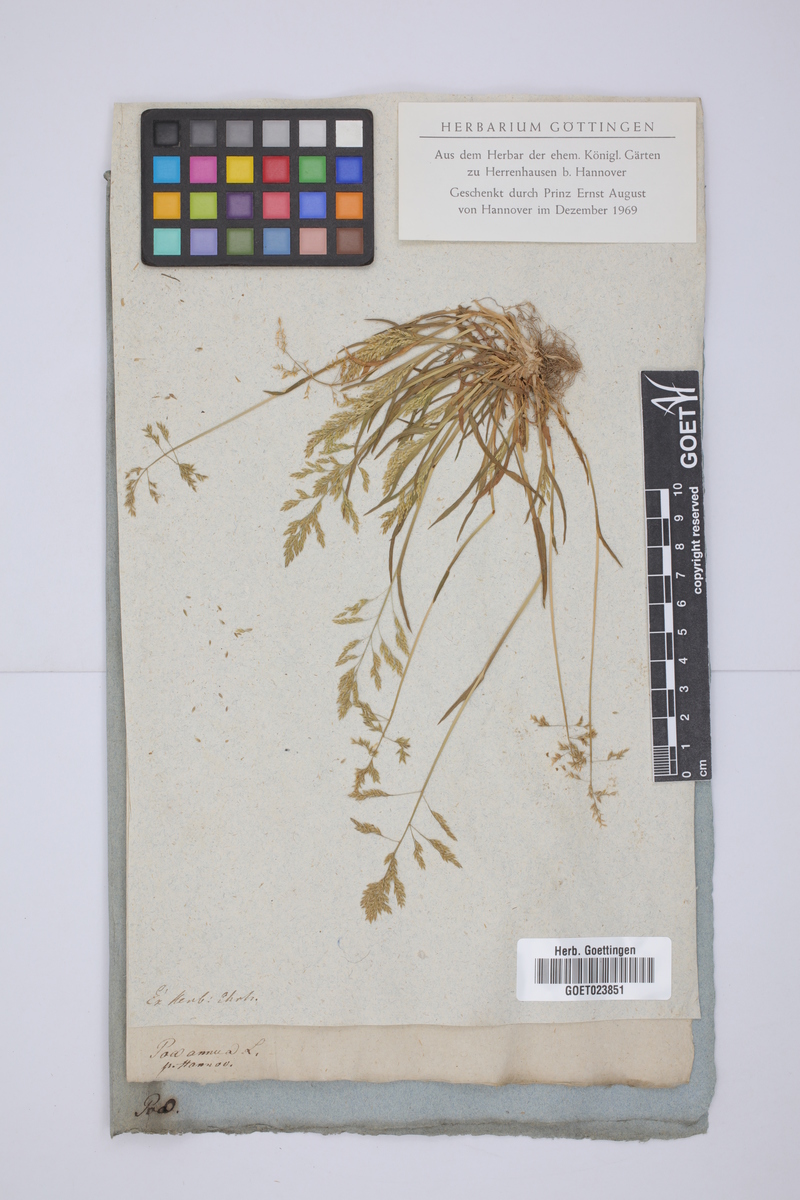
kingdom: Plantae
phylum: Tracheophyta
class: Liliopsida
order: Poales
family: Poaceae
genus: Poa
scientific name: Poa annua
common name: Annual bluegrass
